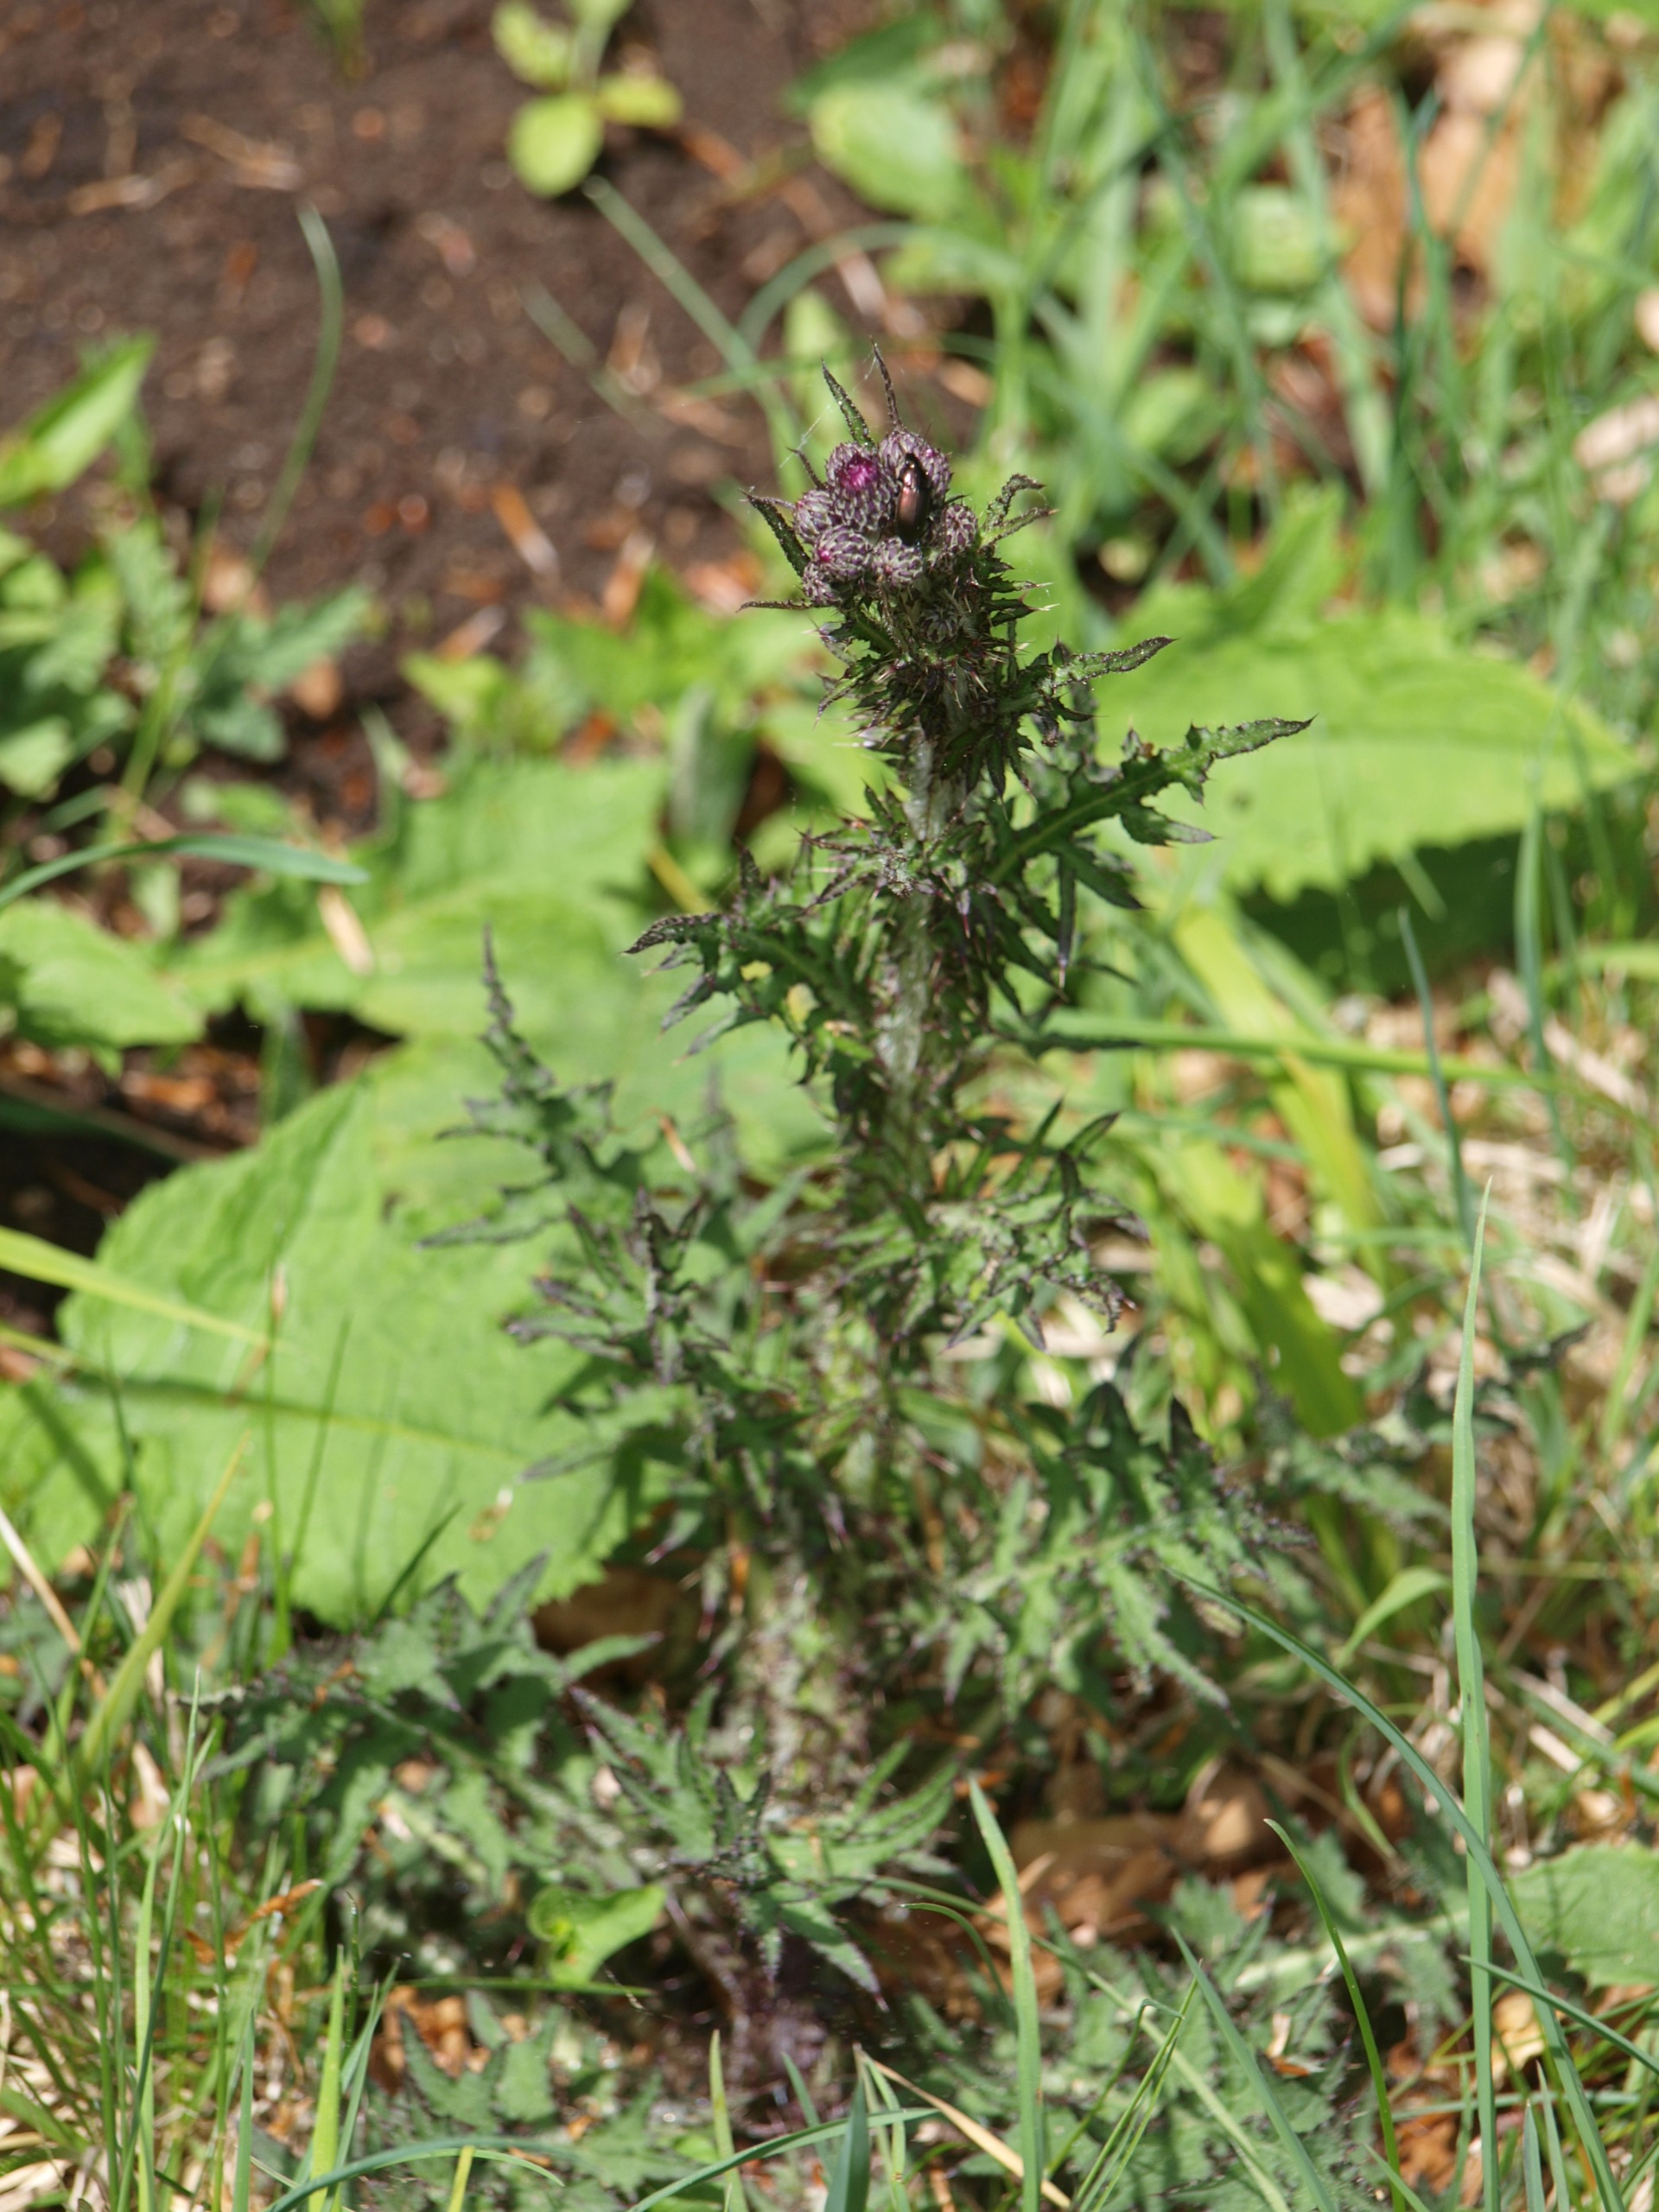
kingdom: Plantae
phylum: Tracheophyta
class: Magnoliopsida
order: Asterales
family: Asteraceae
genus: Cirsium
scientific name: Cirsium palustre
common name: Kær-tidsel
